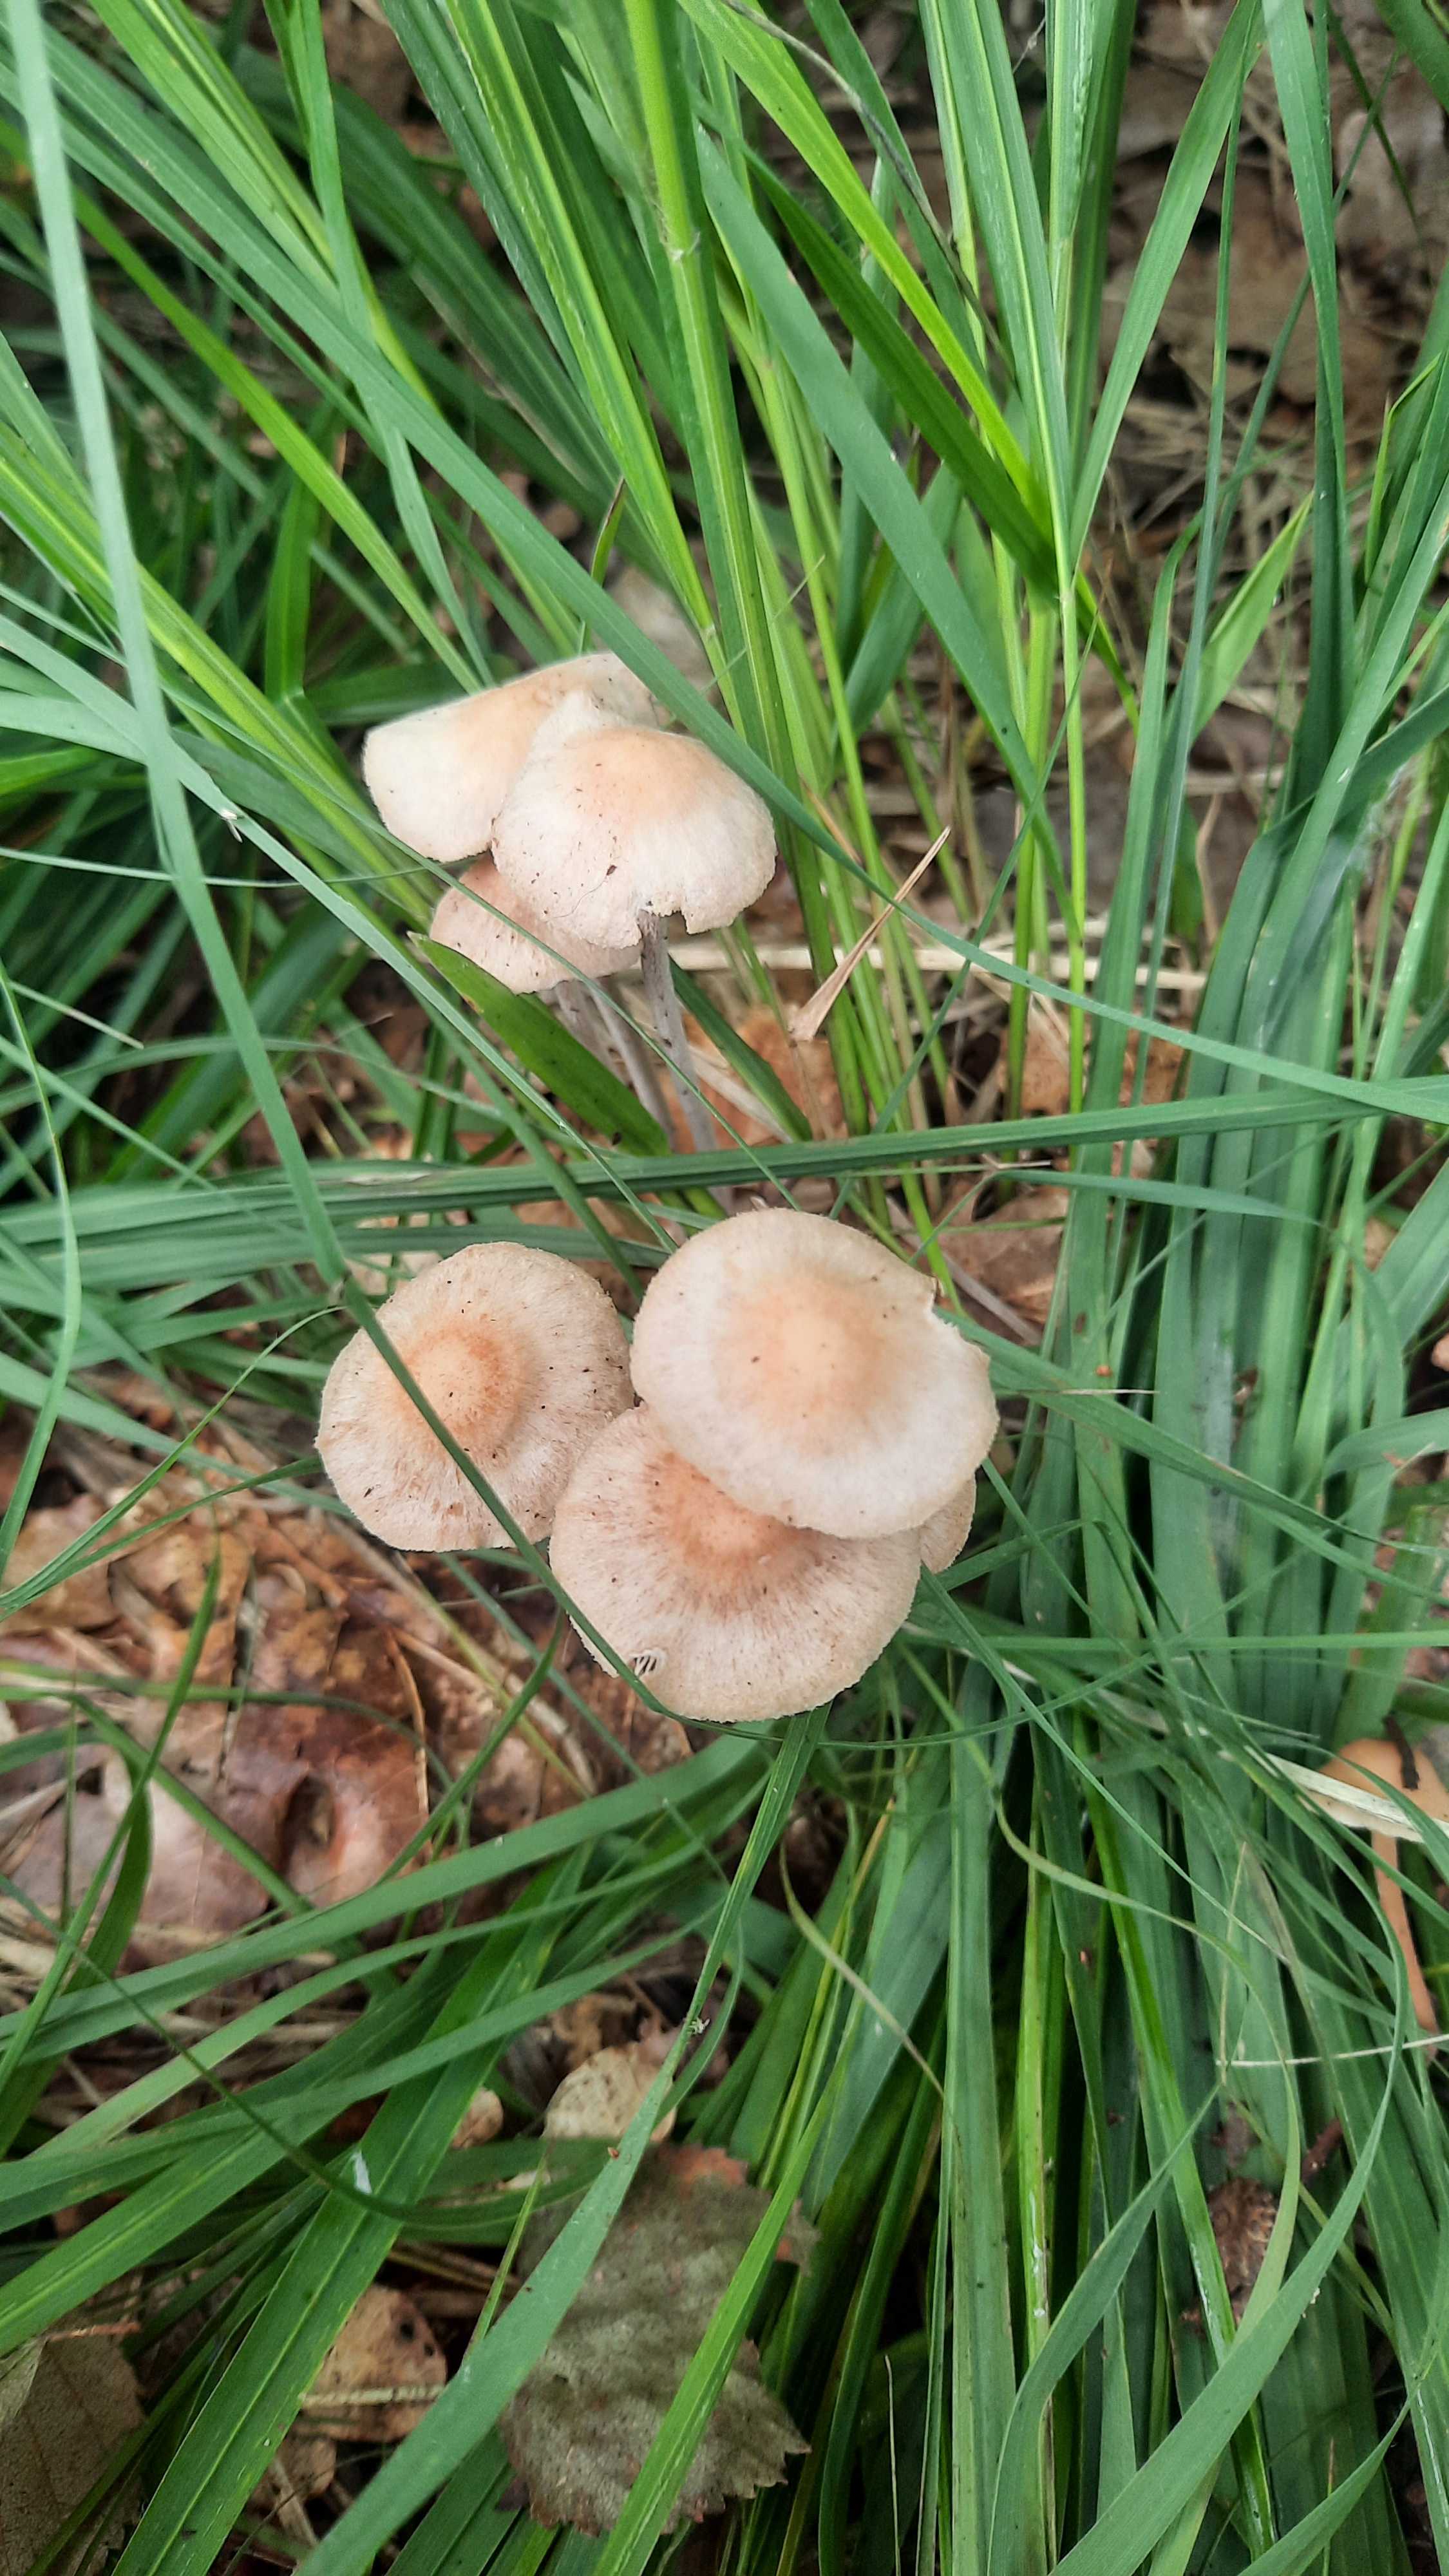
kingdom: Fungi
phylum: Basidiomycota
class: Agaricomycetes
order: Agaricales
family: Omphalotaceae
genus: Collybiopsis
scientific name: Collybiopsis confluens
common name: knippe-fladhat
